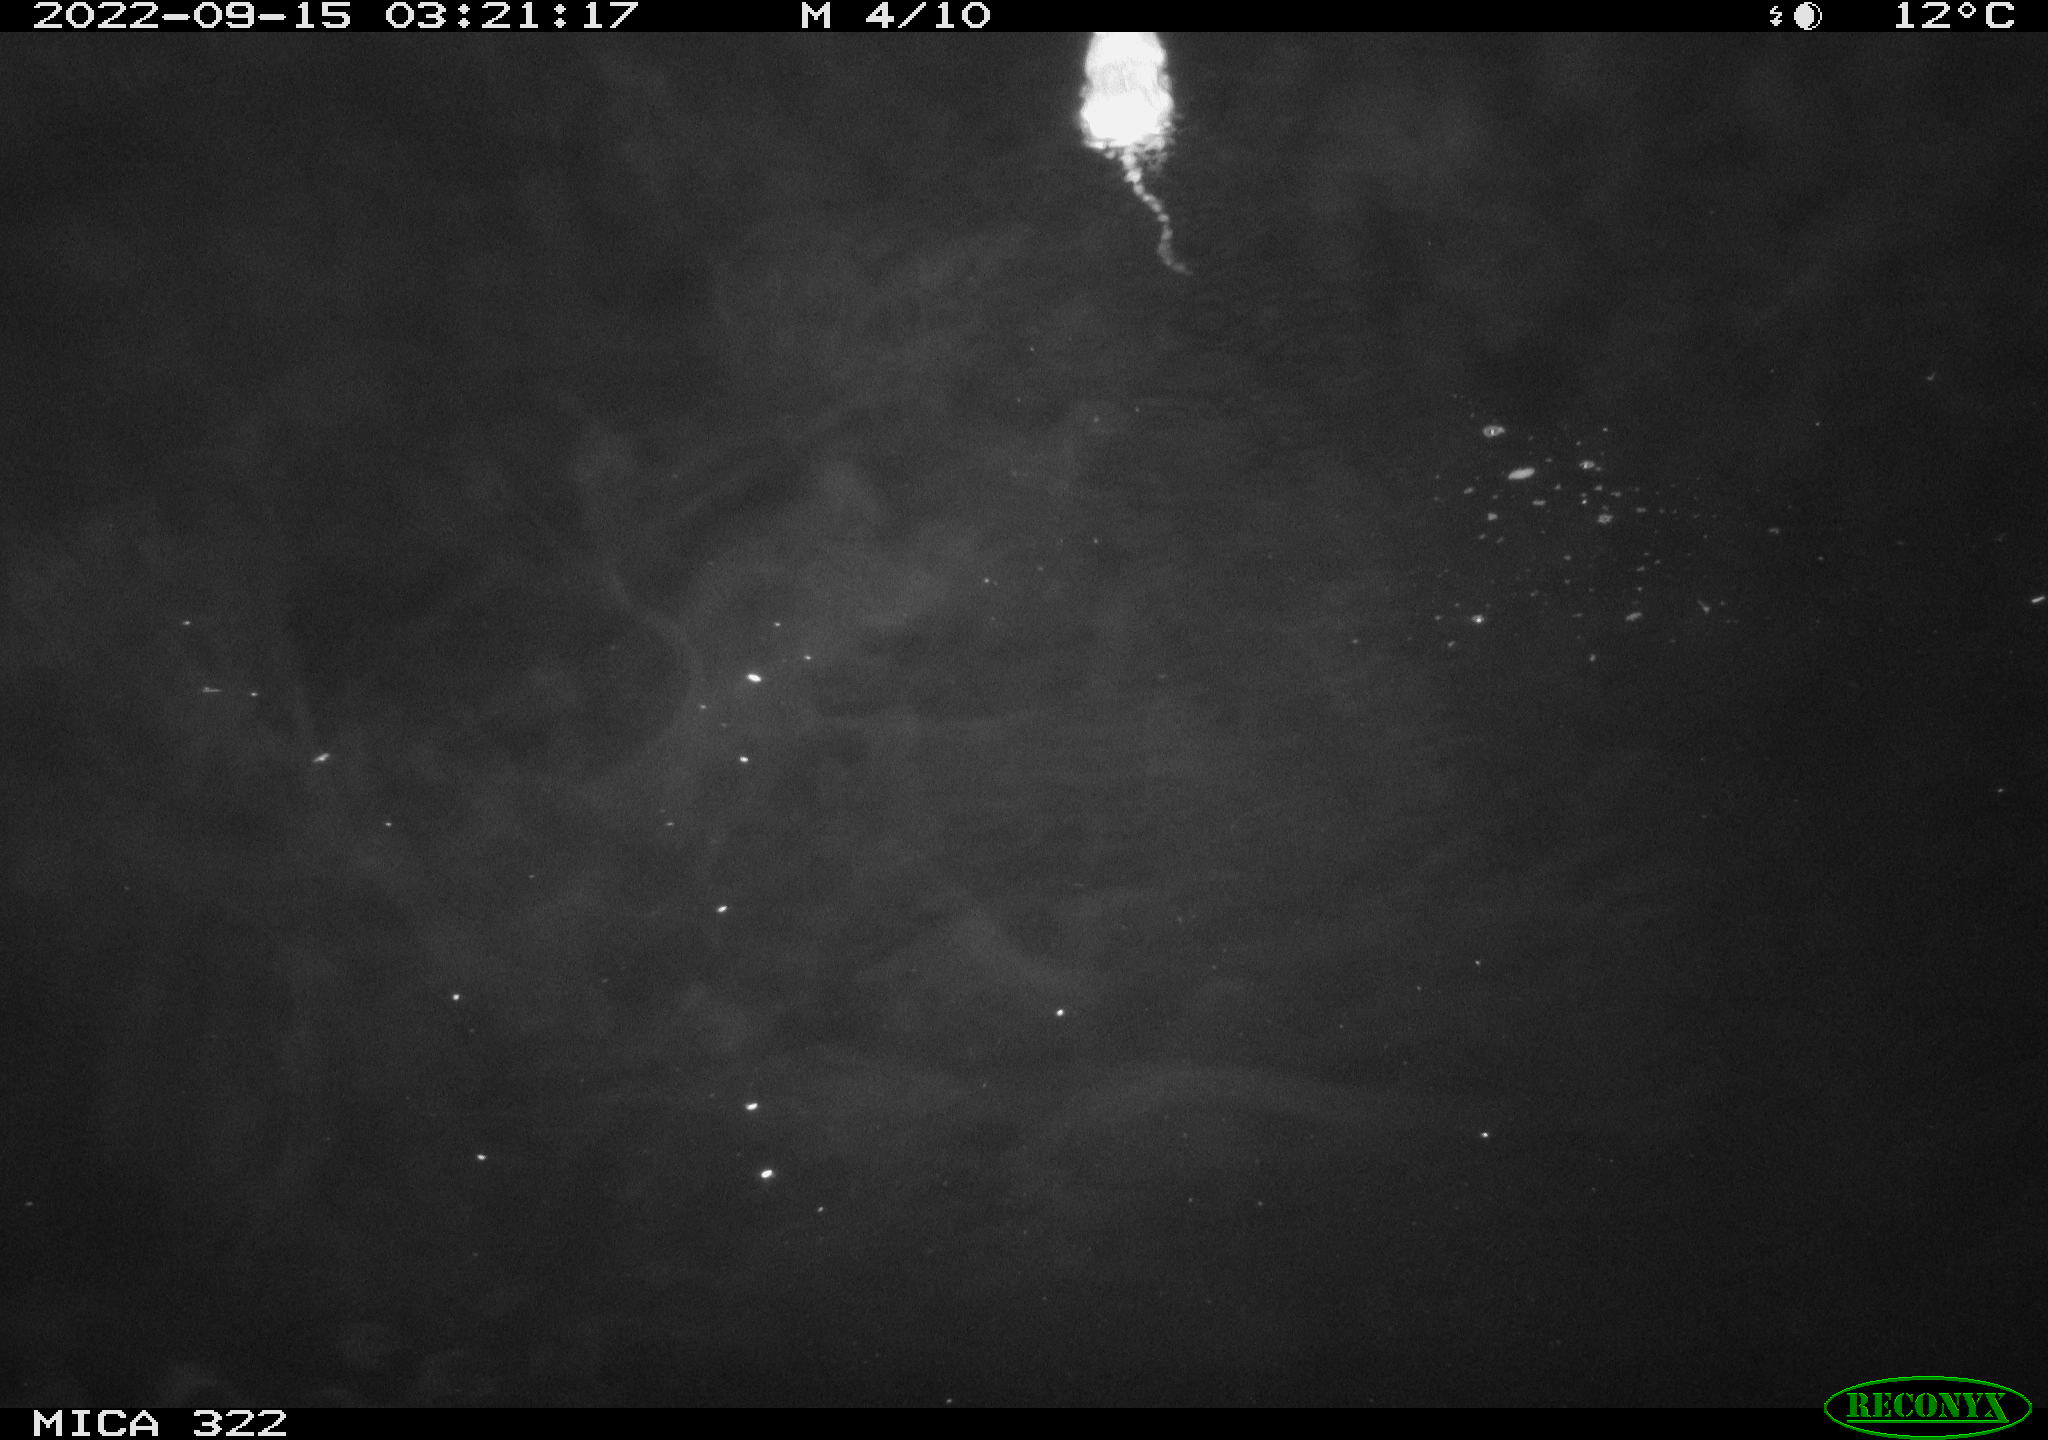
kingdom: Animalia
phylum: Chordata
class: Mammalia
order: Rodentia
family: Muridae
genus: Rattus
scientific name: Rattus norvegicus
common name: Brown rat
